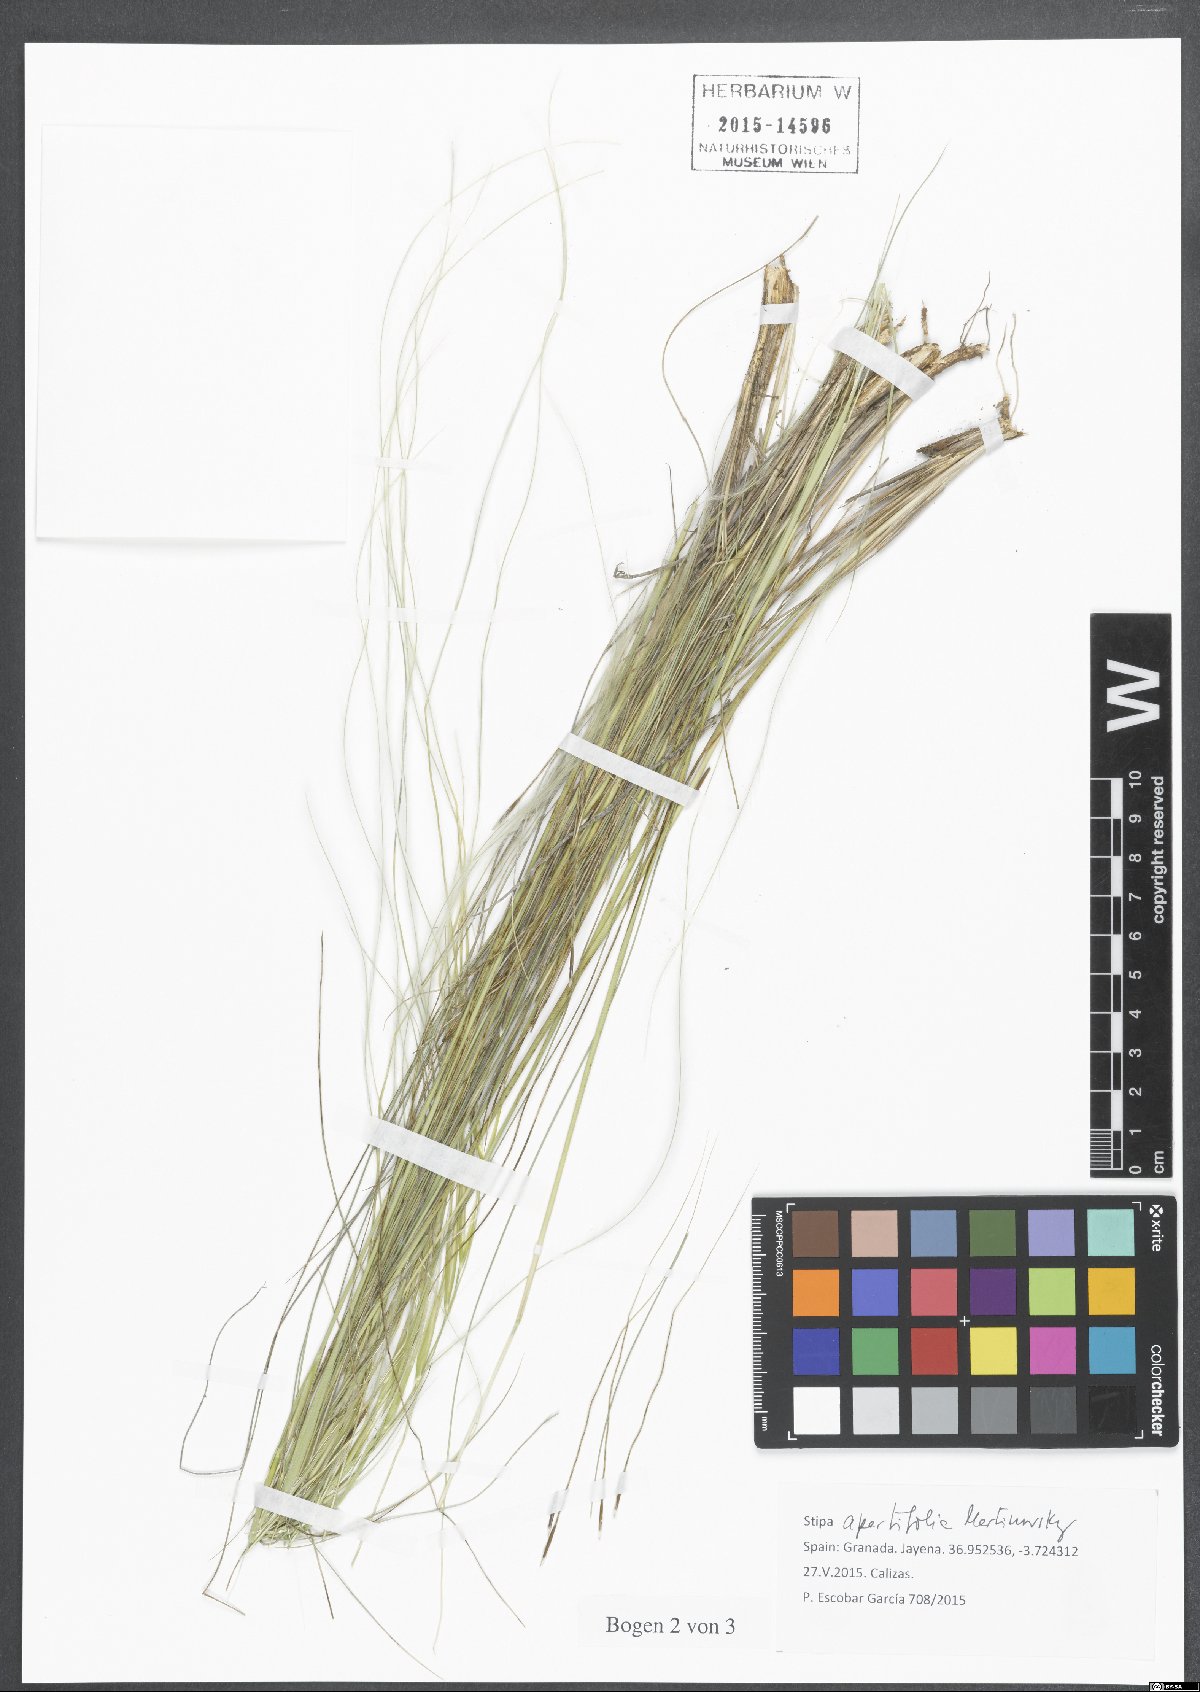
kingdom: Plantae
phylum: Tracheophyta
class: Liliopsida
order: Poales
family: Poaceae
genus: Stipa
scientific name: Stipa apertifolia
